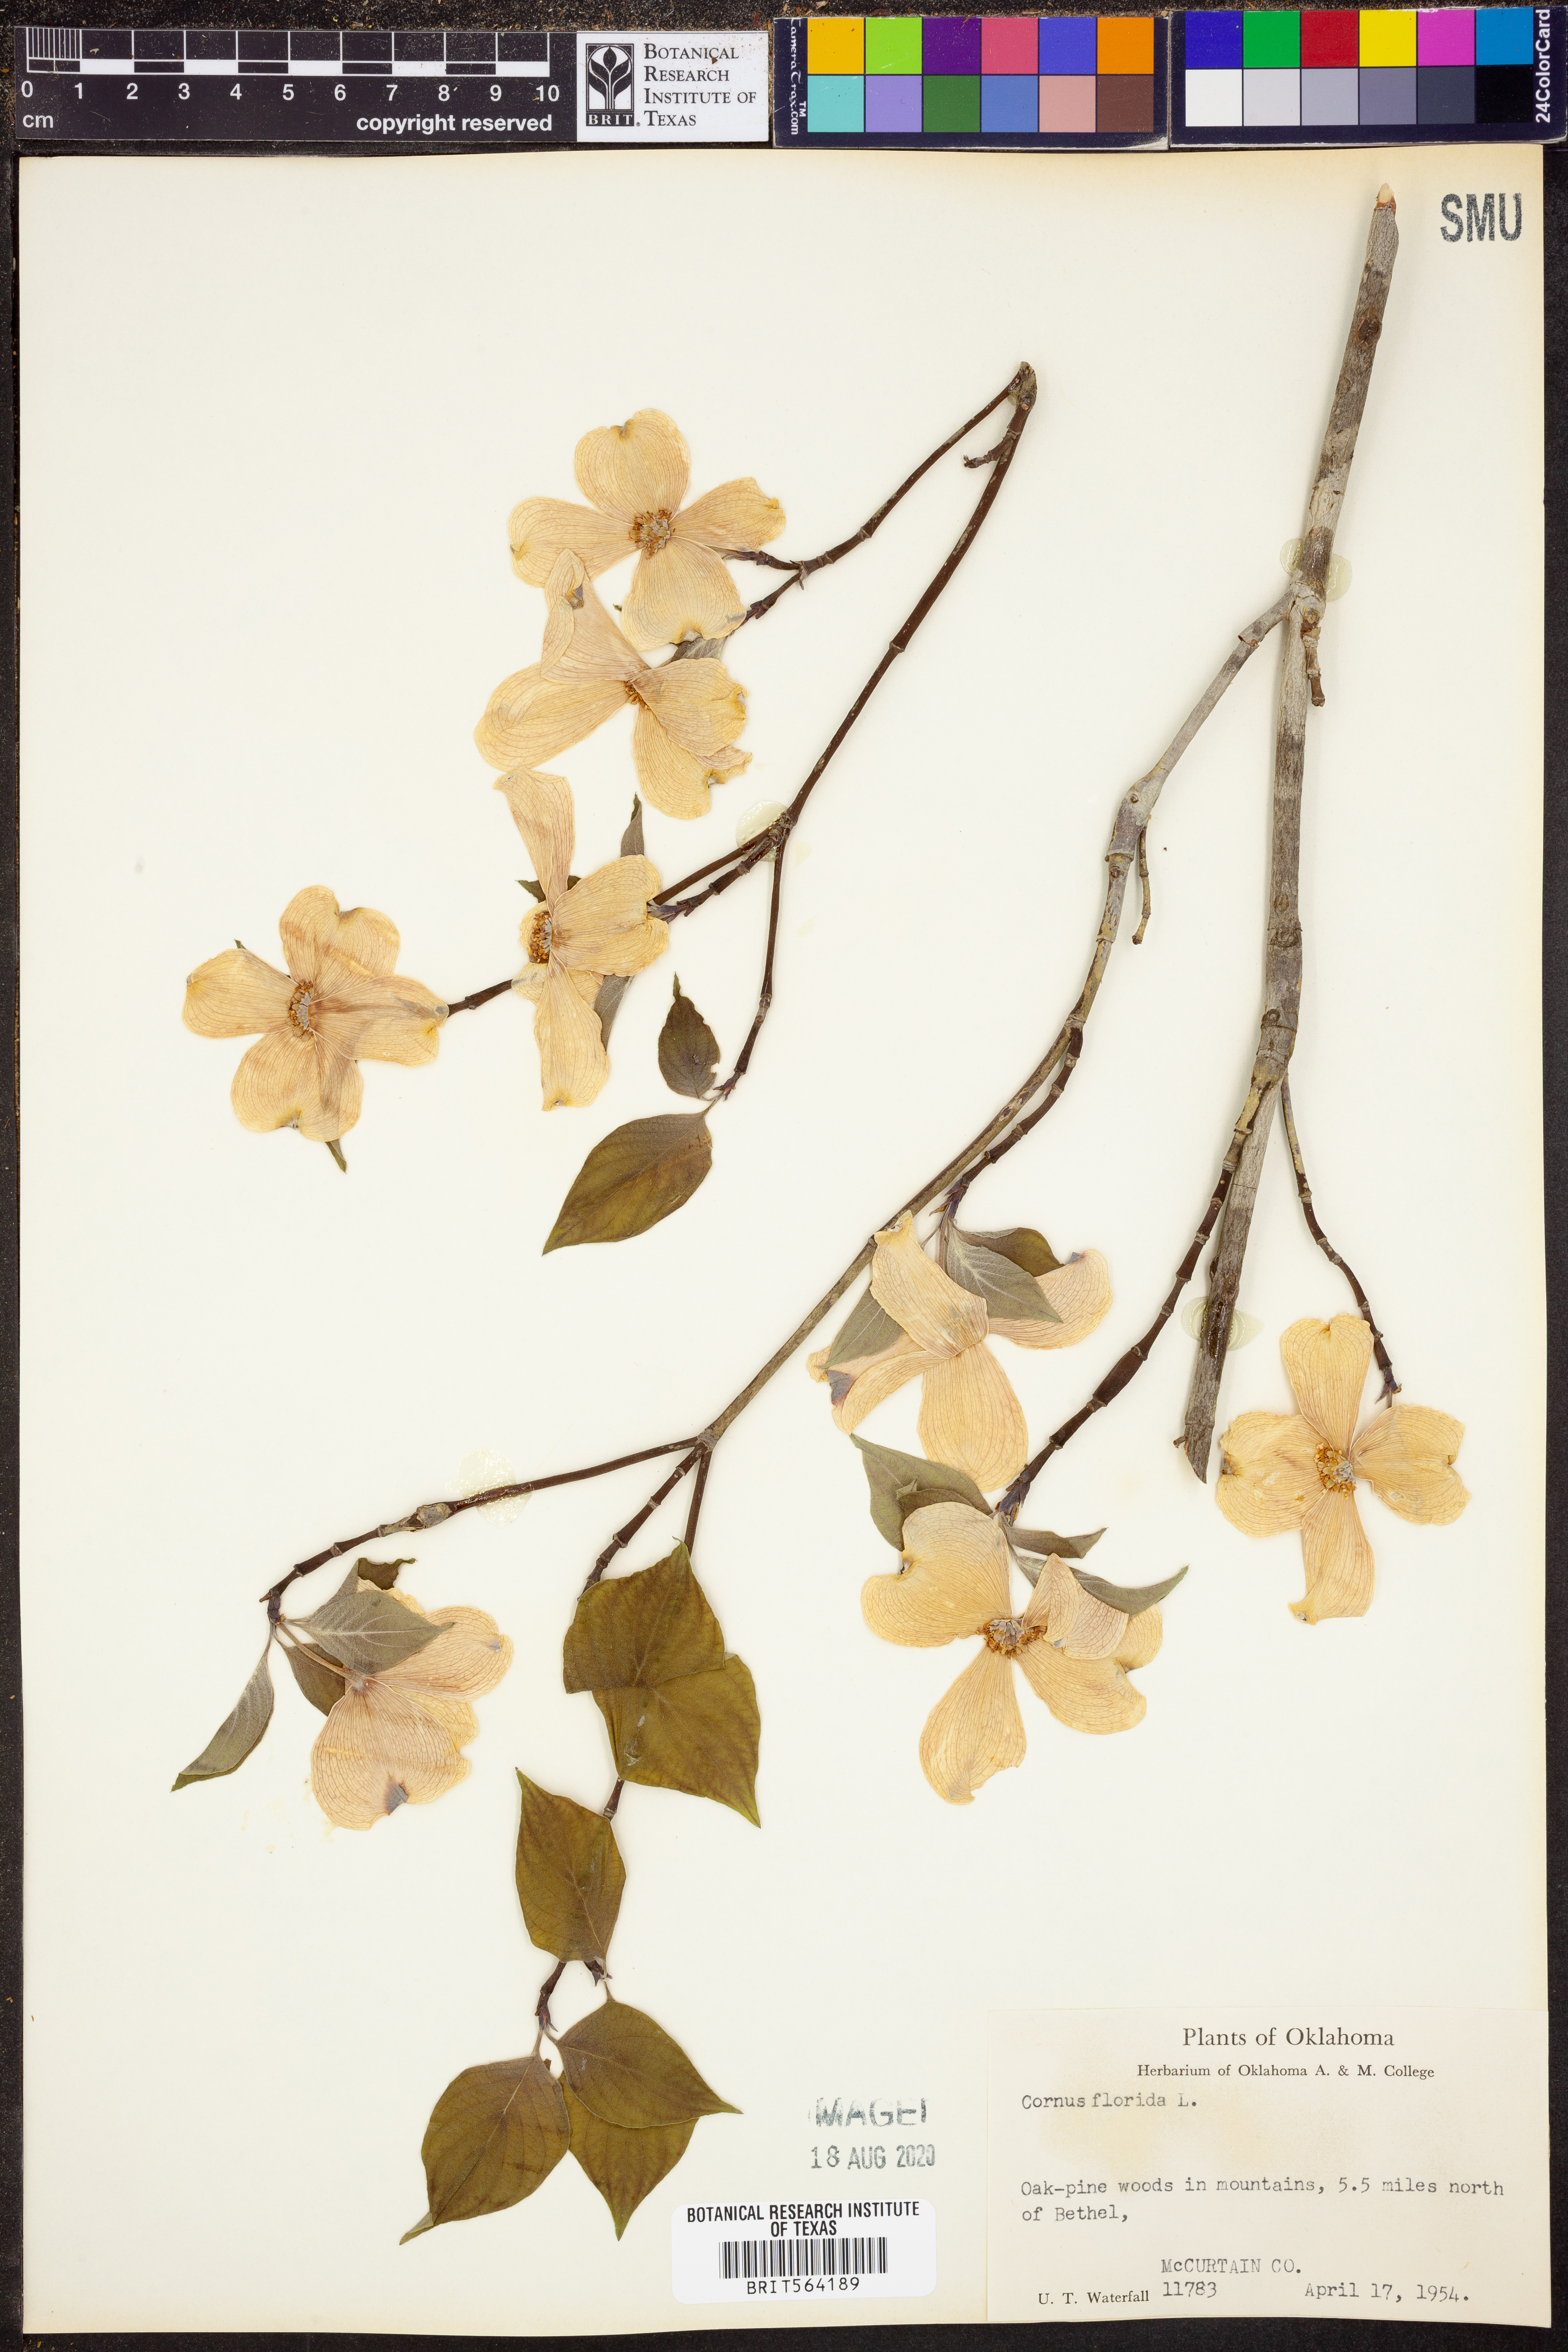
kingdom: Plantae
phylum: Tracheophyta
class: Magnoliopsida
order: Cornales
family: Cornaceae
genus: Cornus
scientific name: Cornus florida
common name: Flowering dogwood
